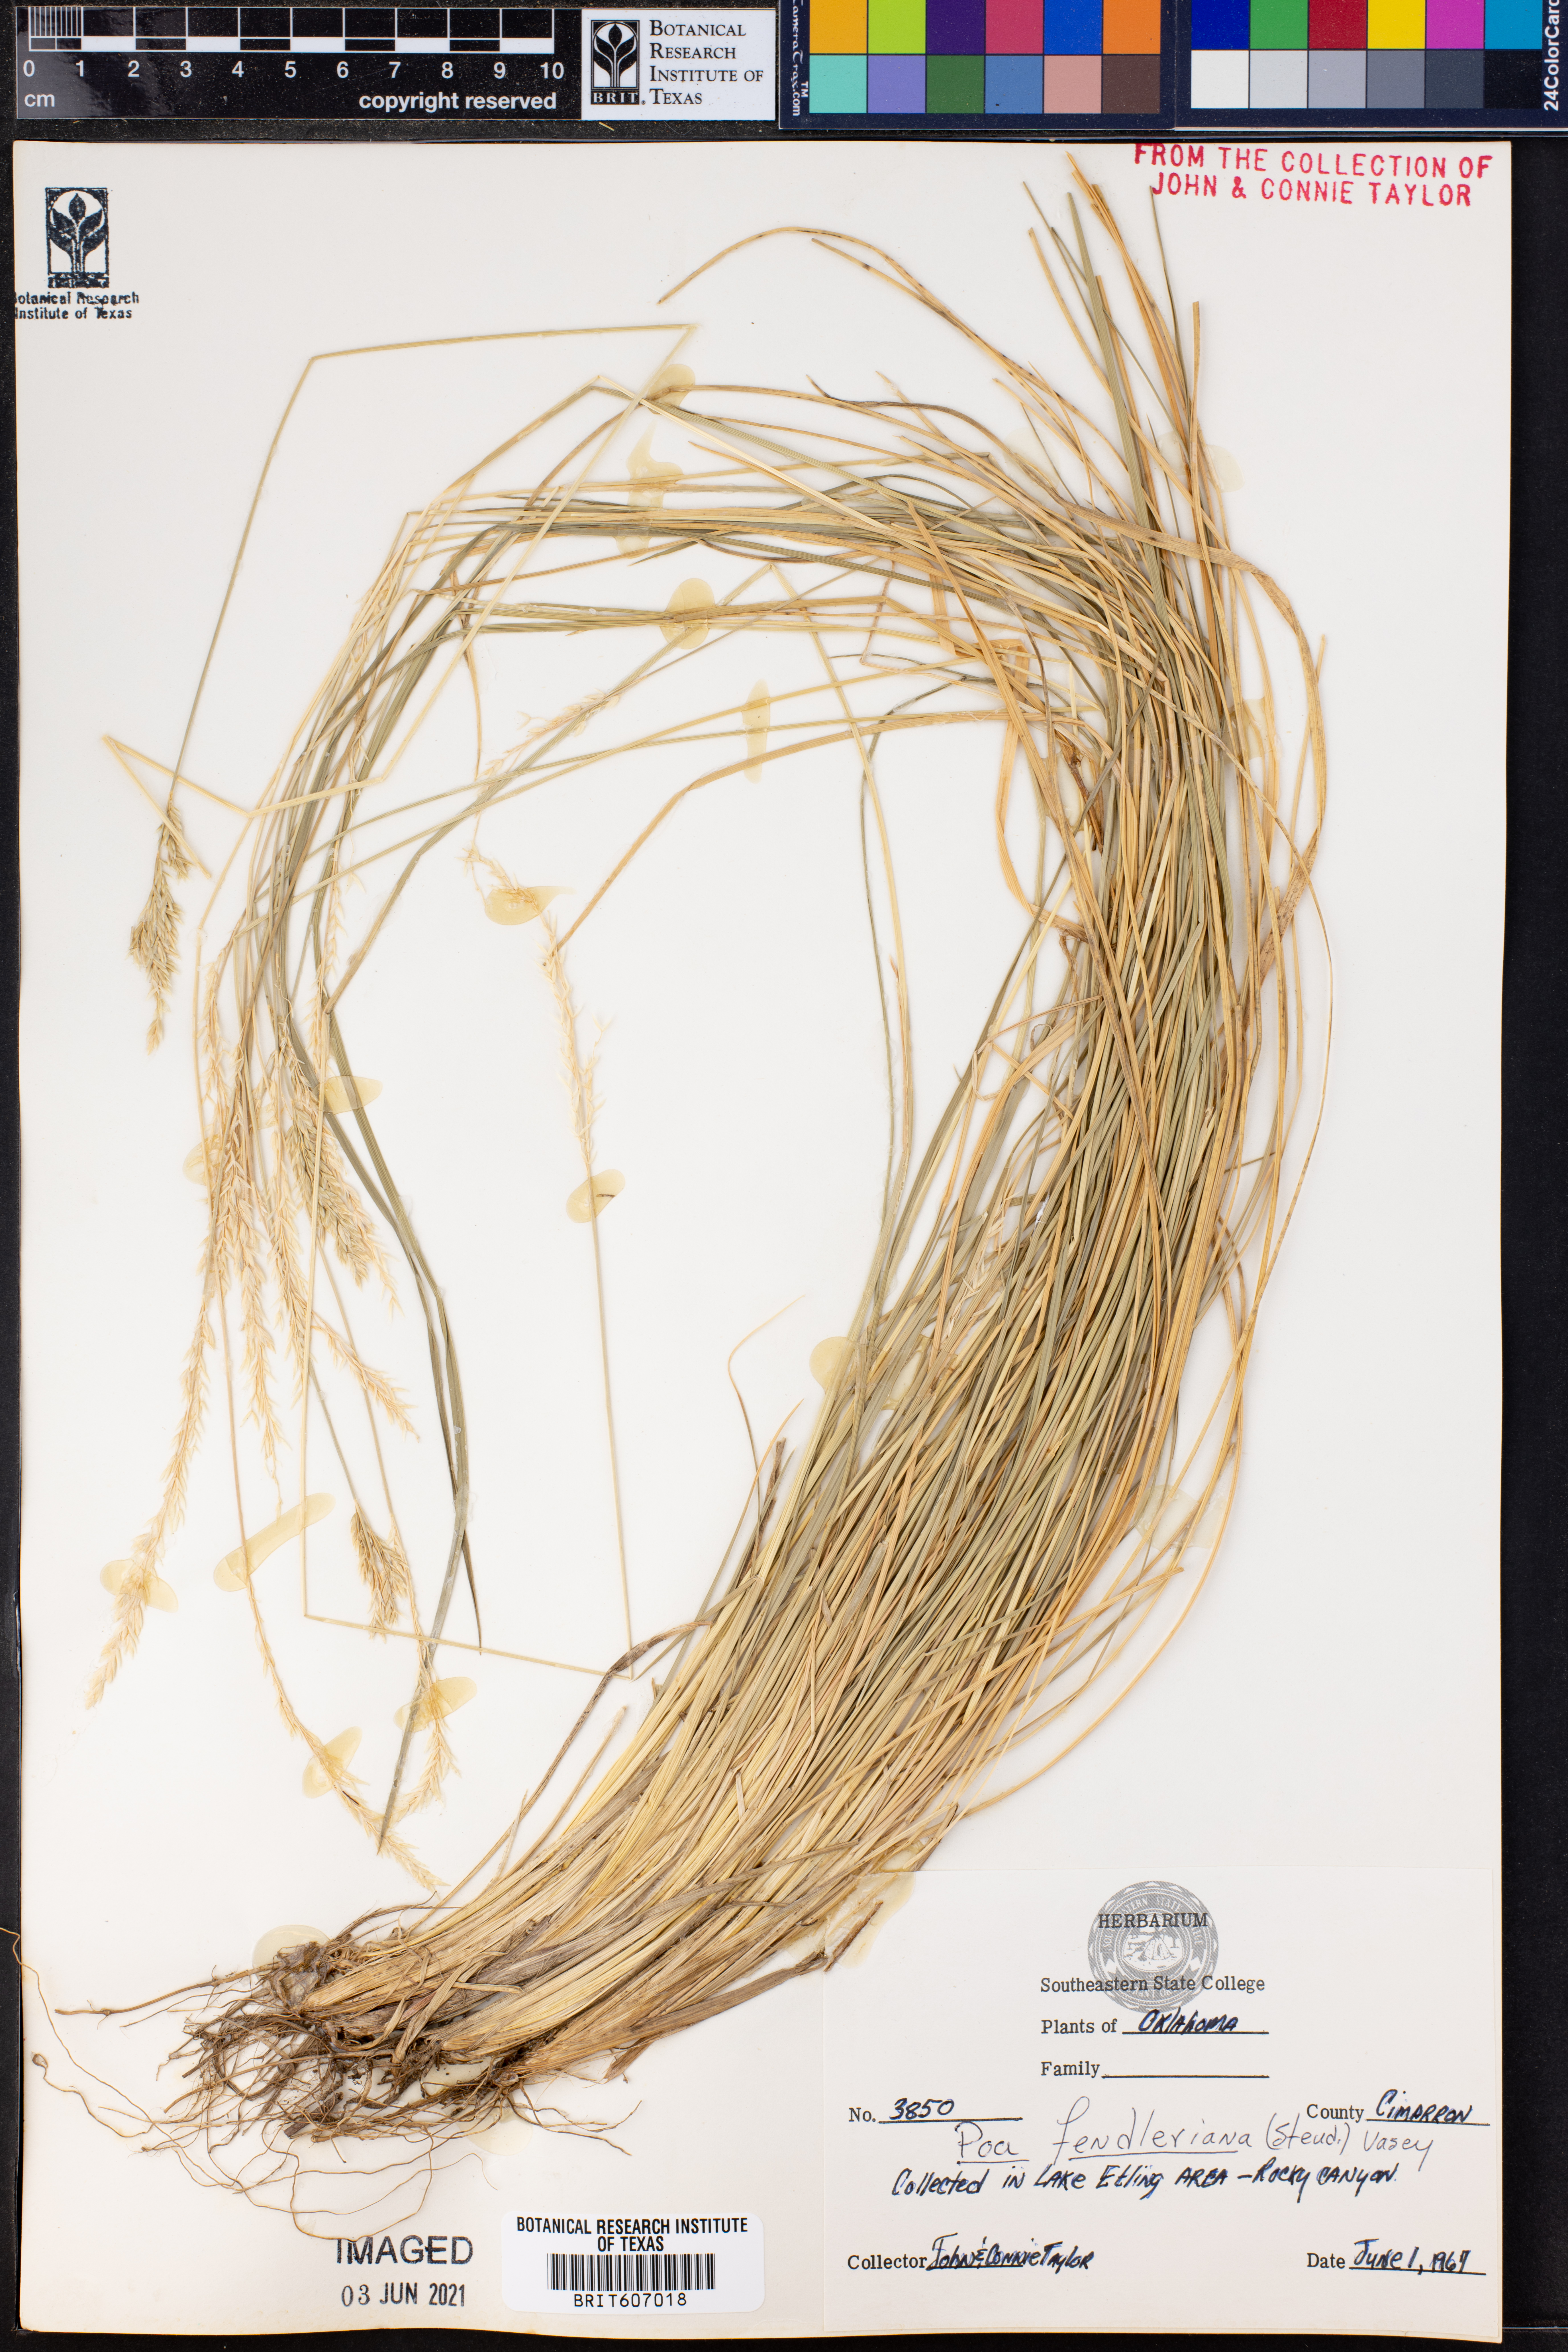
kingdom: Plantae
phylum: Tracheophyta
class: Liliopsida
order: Poales
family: Poaceae
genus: Poa
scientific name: Poa fendleriana
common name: Mutton bluegrass
